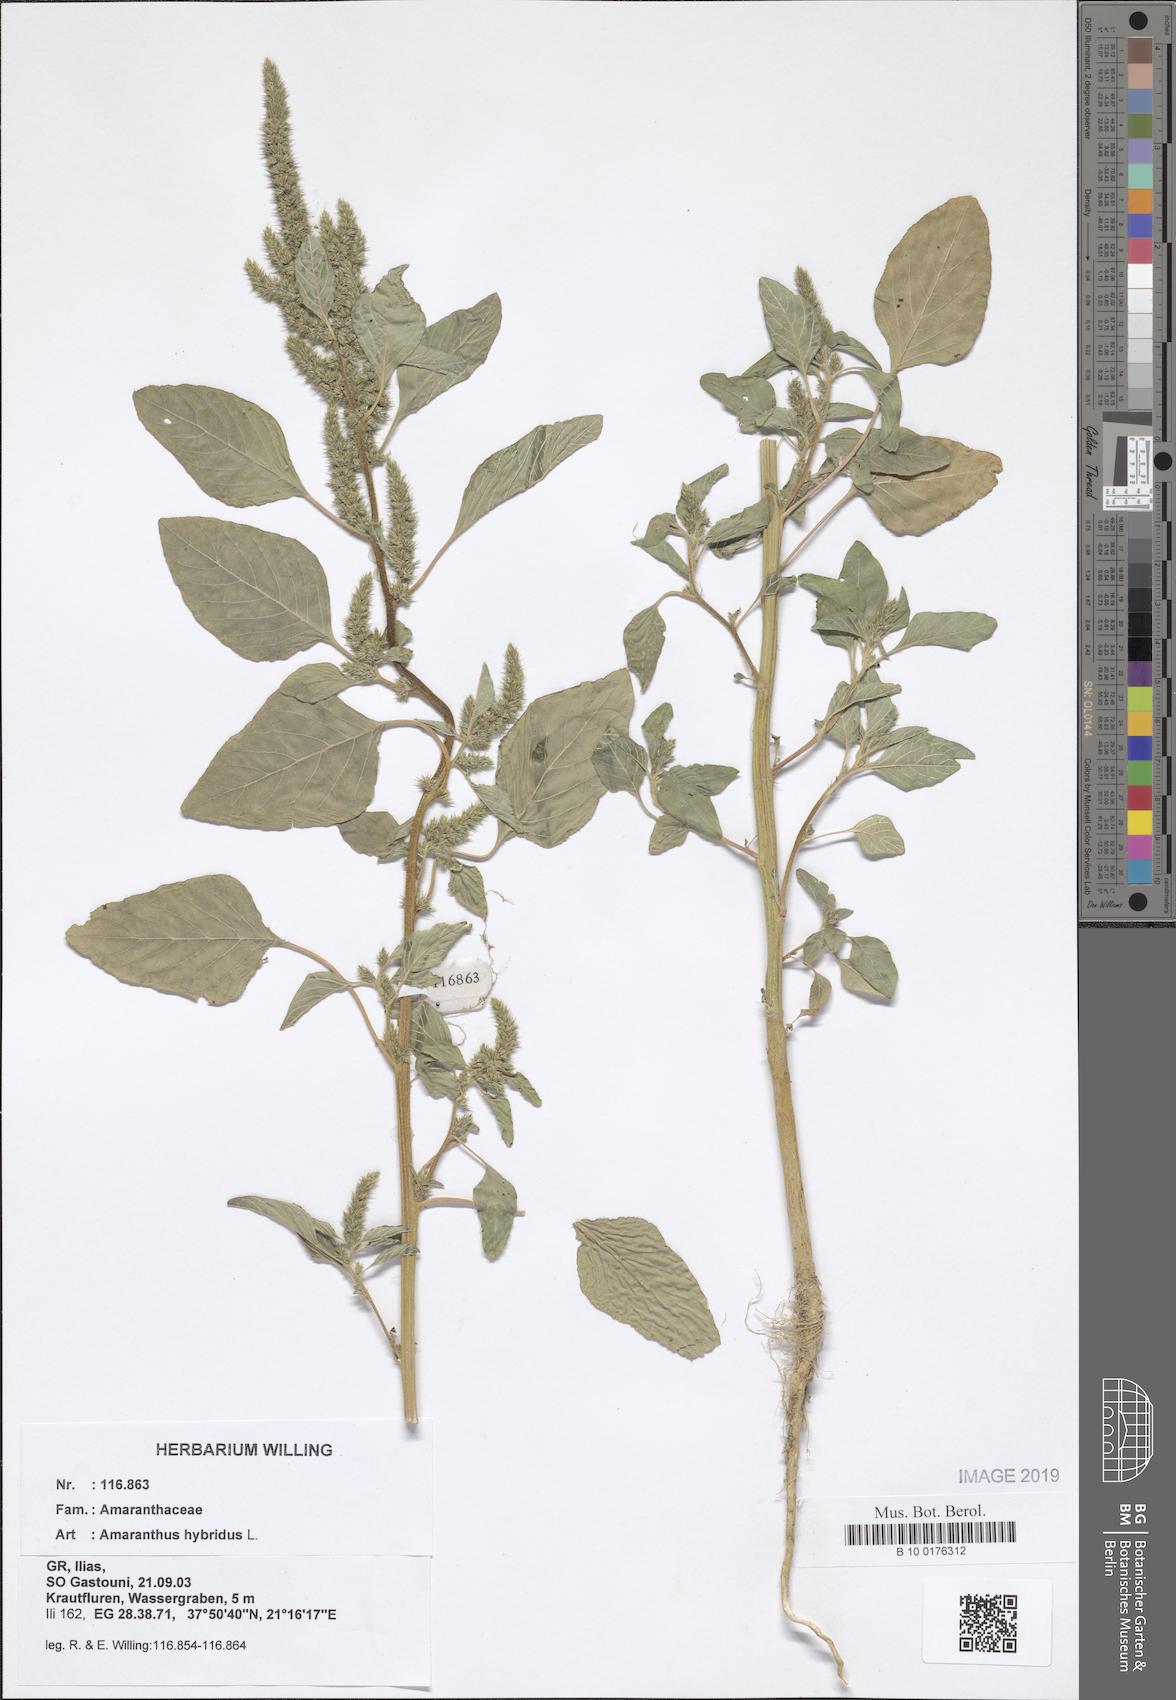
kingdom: Plantae
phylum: Tracheophyta
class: Magnoliopsida
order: Caryophyllales
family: Amaranthaceae
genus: Amaranthus
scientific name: Amaranthus hybridus
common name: Green amaranth
